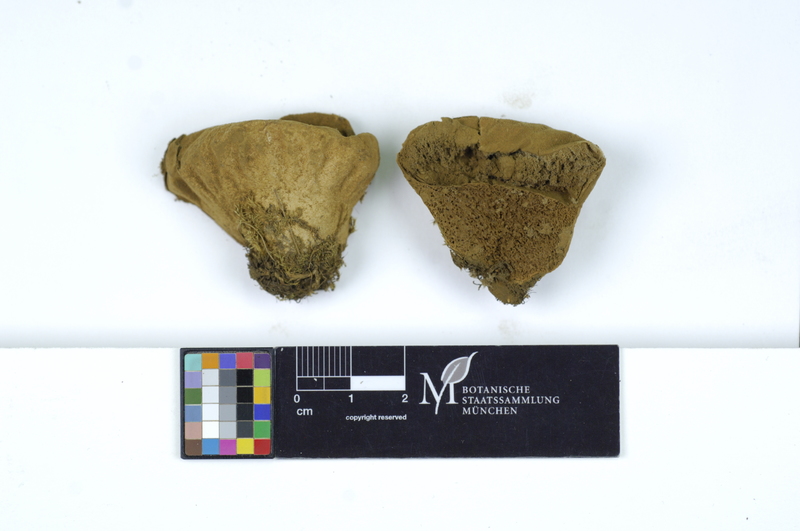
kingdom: Fungi
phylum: Basidiomycota
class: Agaricomycetes
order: Agaricales
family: Lycoperdaceae
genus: Lycoperdon
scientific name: Lycoperdon pratense
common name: Meadow puffball
